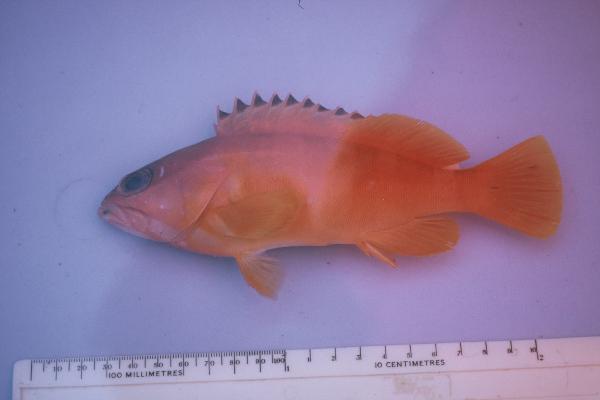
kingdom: Animalia
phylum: Chordata
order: Perciformes
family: Serranidae
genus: Epinephelus
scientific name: Epinephelus fasciatus
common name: Blacktip grouper
